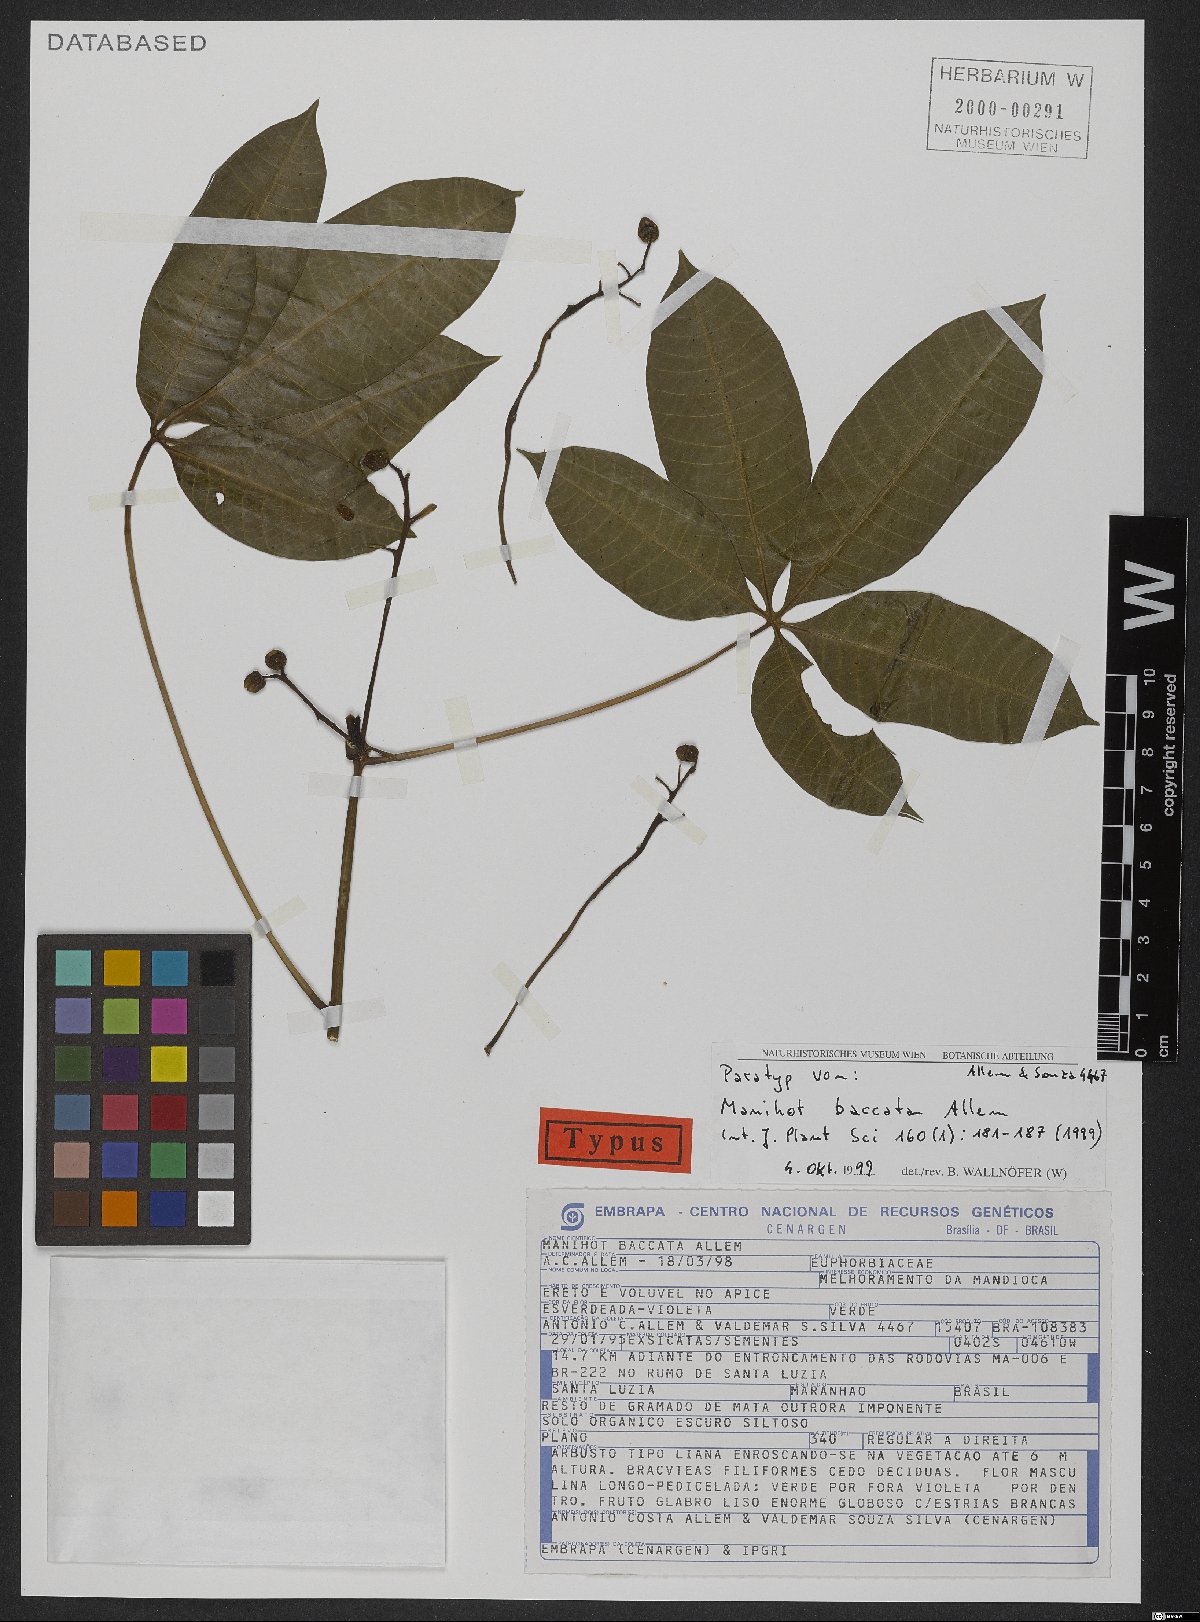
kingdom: Plantae
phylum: Tracheophyta
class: Magnoliopsida
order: Malpighiales
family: Euphorbiaceae
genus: Manihot
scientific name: Manihot baccata
